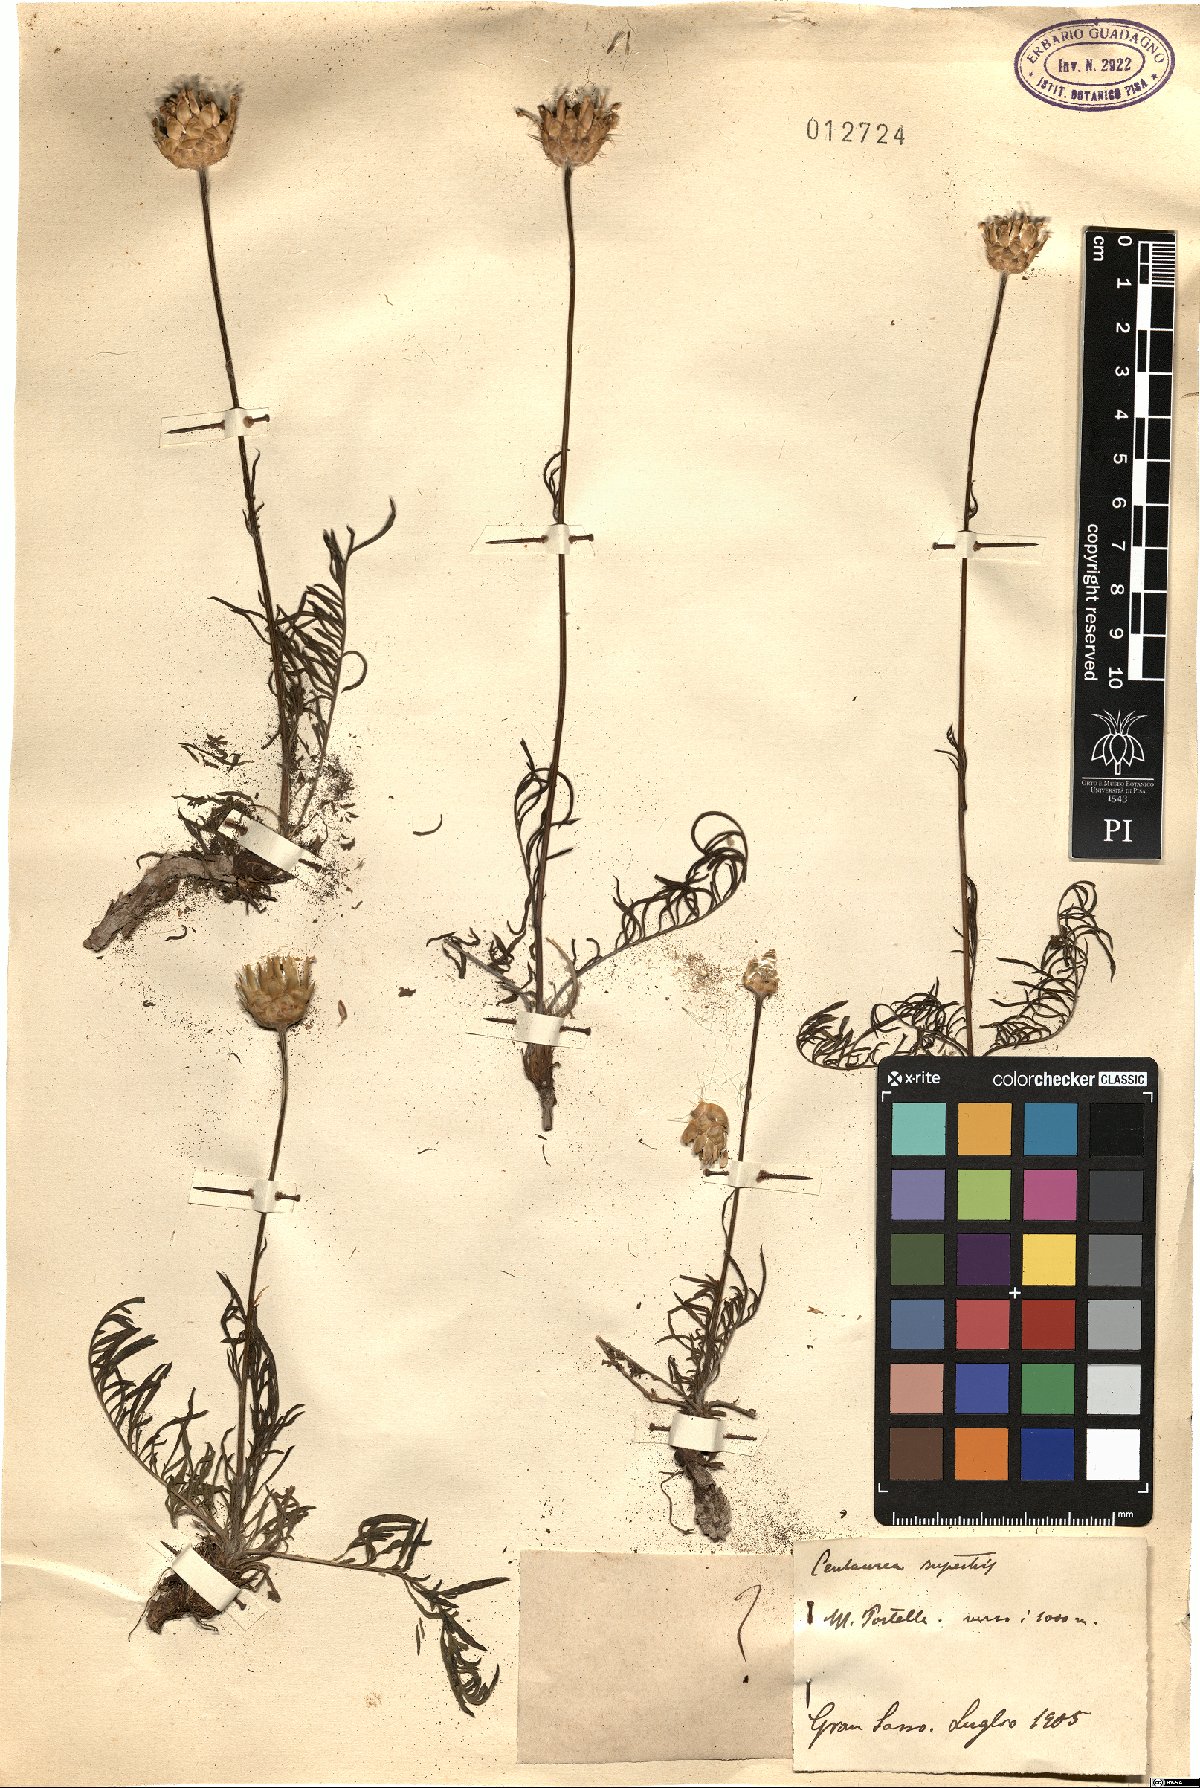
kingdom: Plantae
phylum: Tracheophyta
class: Magnoliopsida
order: Asterales
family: Asteraceae
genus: Centaurea
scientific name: Centaurea rupestris
